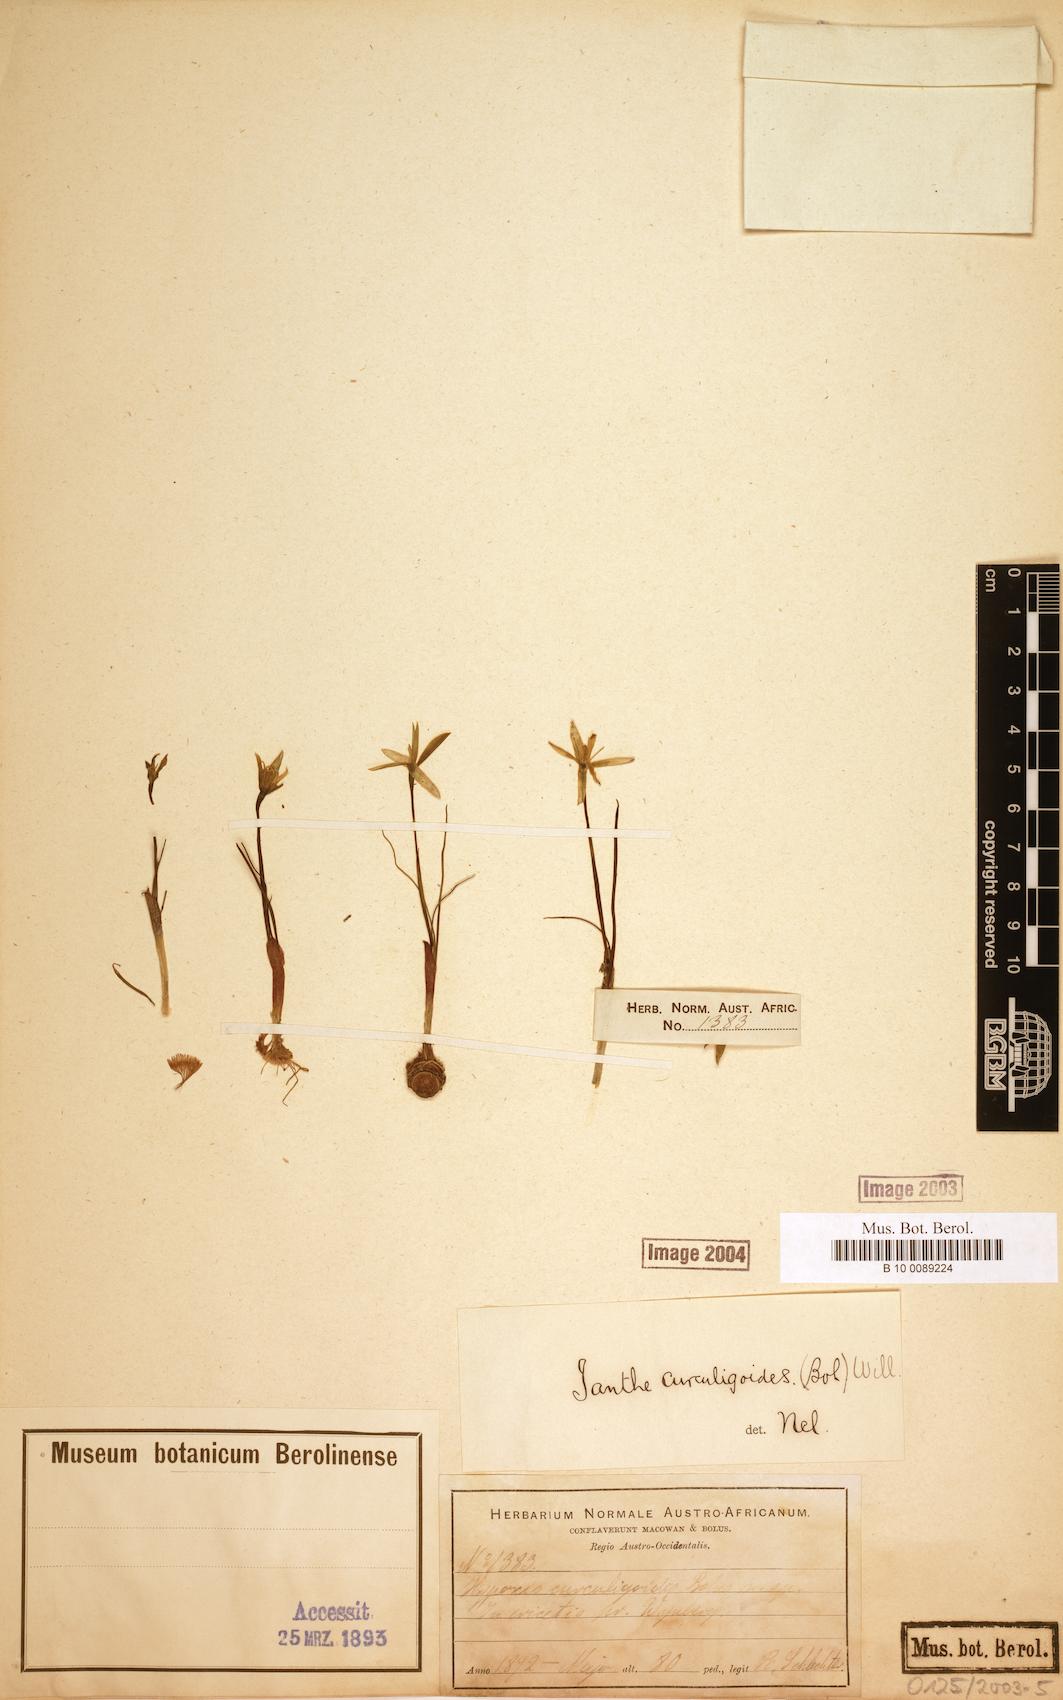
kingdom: Plantae
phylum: Tracheophyta
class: Liliopsida
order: Asparagales
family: Hypoxidaceae
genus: Pauridia
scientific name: Pauridia curculigoides
